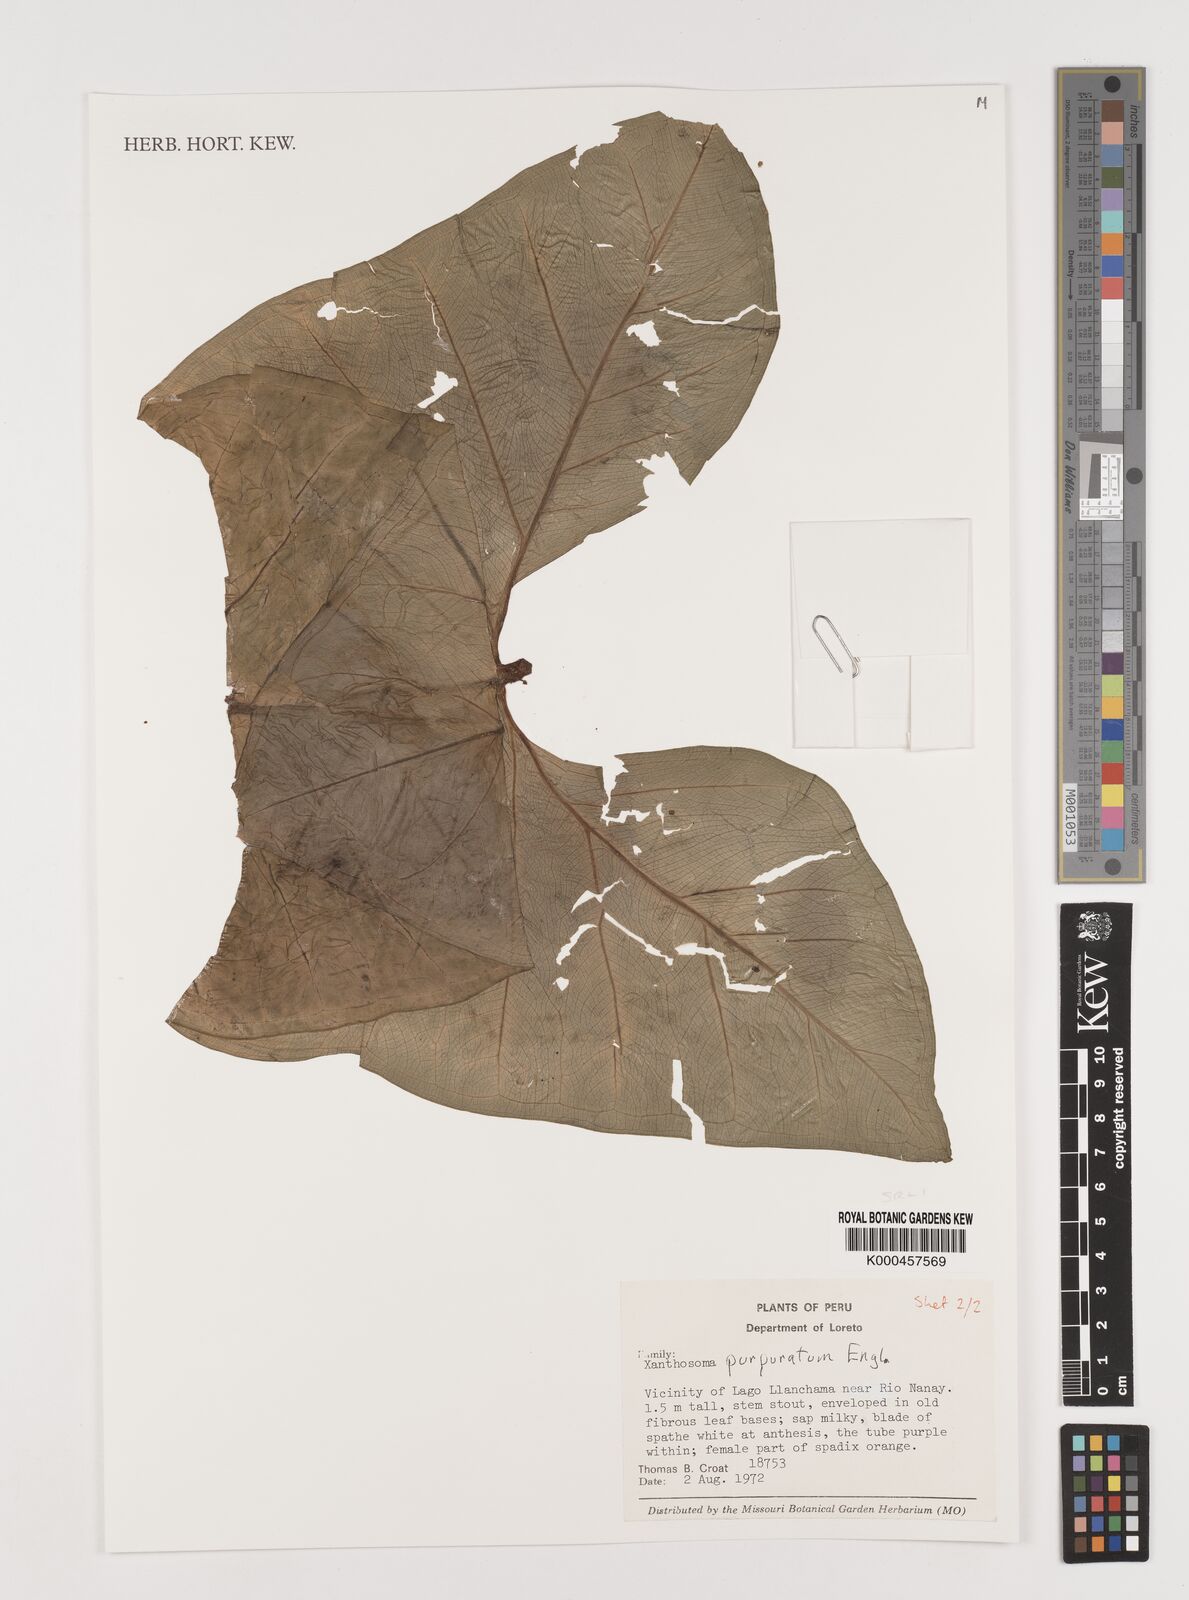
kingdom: Plantae
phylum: Tracheophyta
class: Liliopsida
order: Alismatales
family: Araceae
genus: Xanthosoma
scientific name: Xanthosoma hylaeae
